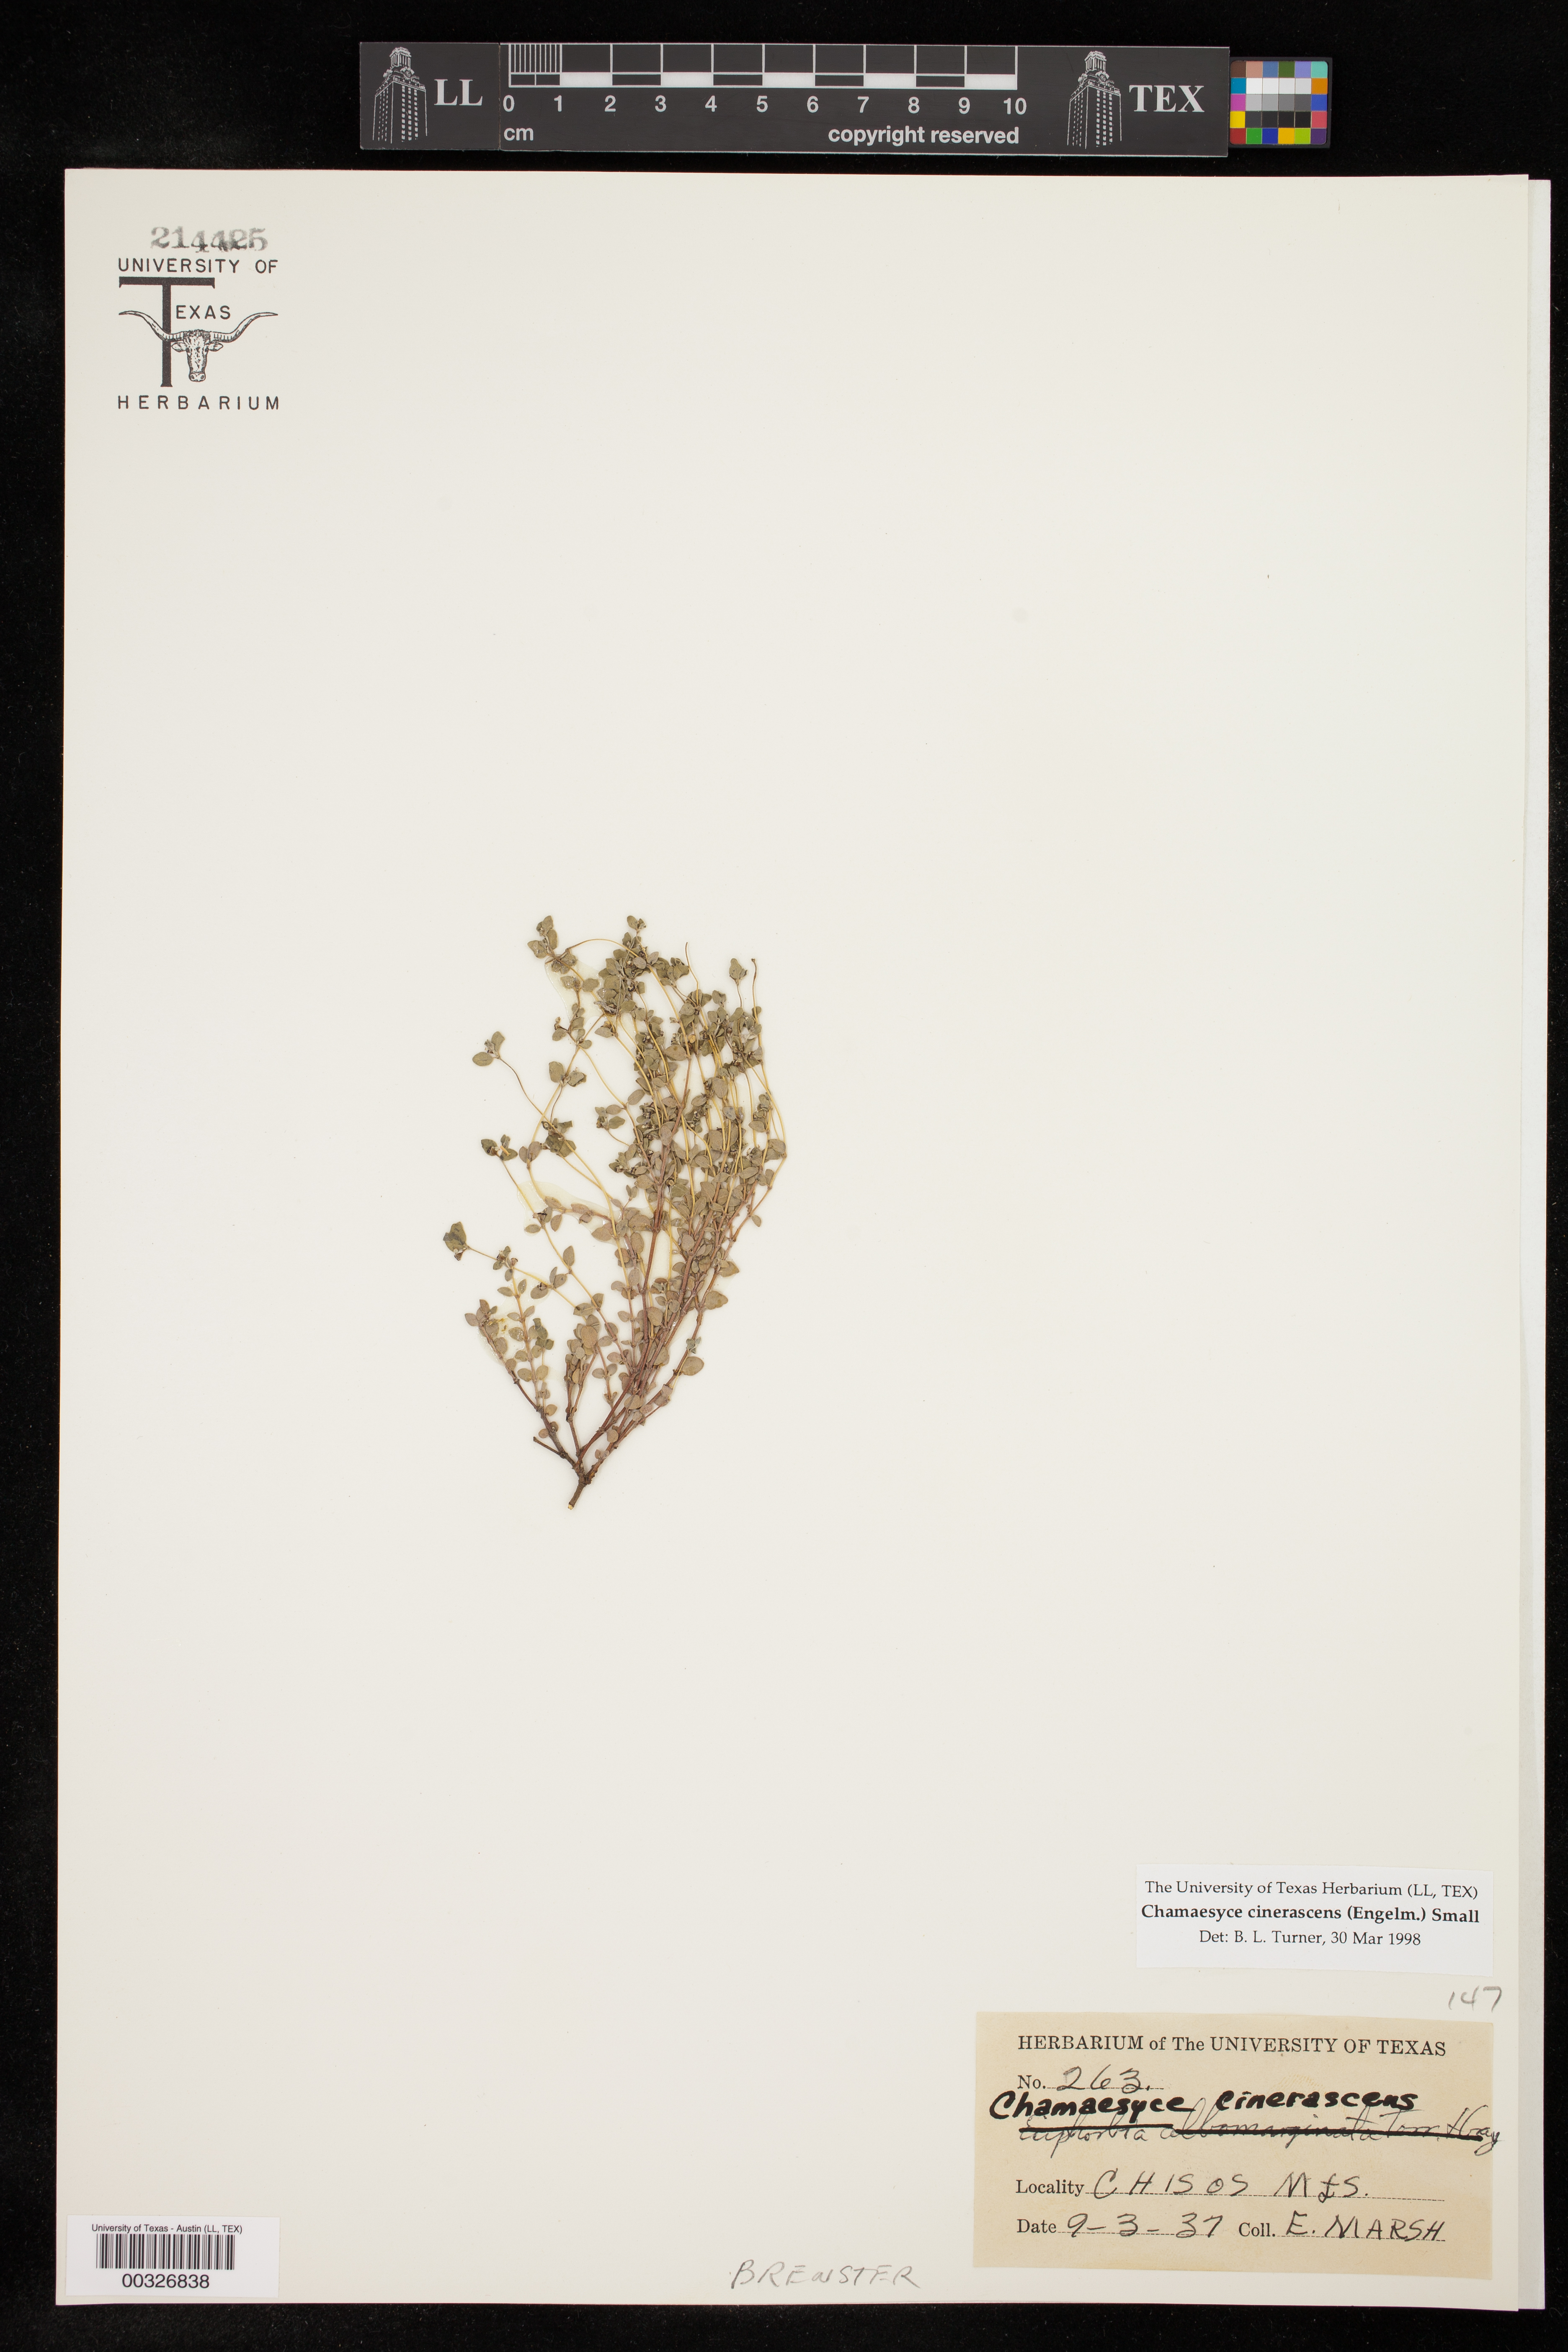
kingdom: Plantae
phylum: Tracheophyta
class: Magnoliopsida
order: Malpighiales
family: Euphorbiaceae
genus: Euphorbia
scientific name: Euphorbia cinerascens
